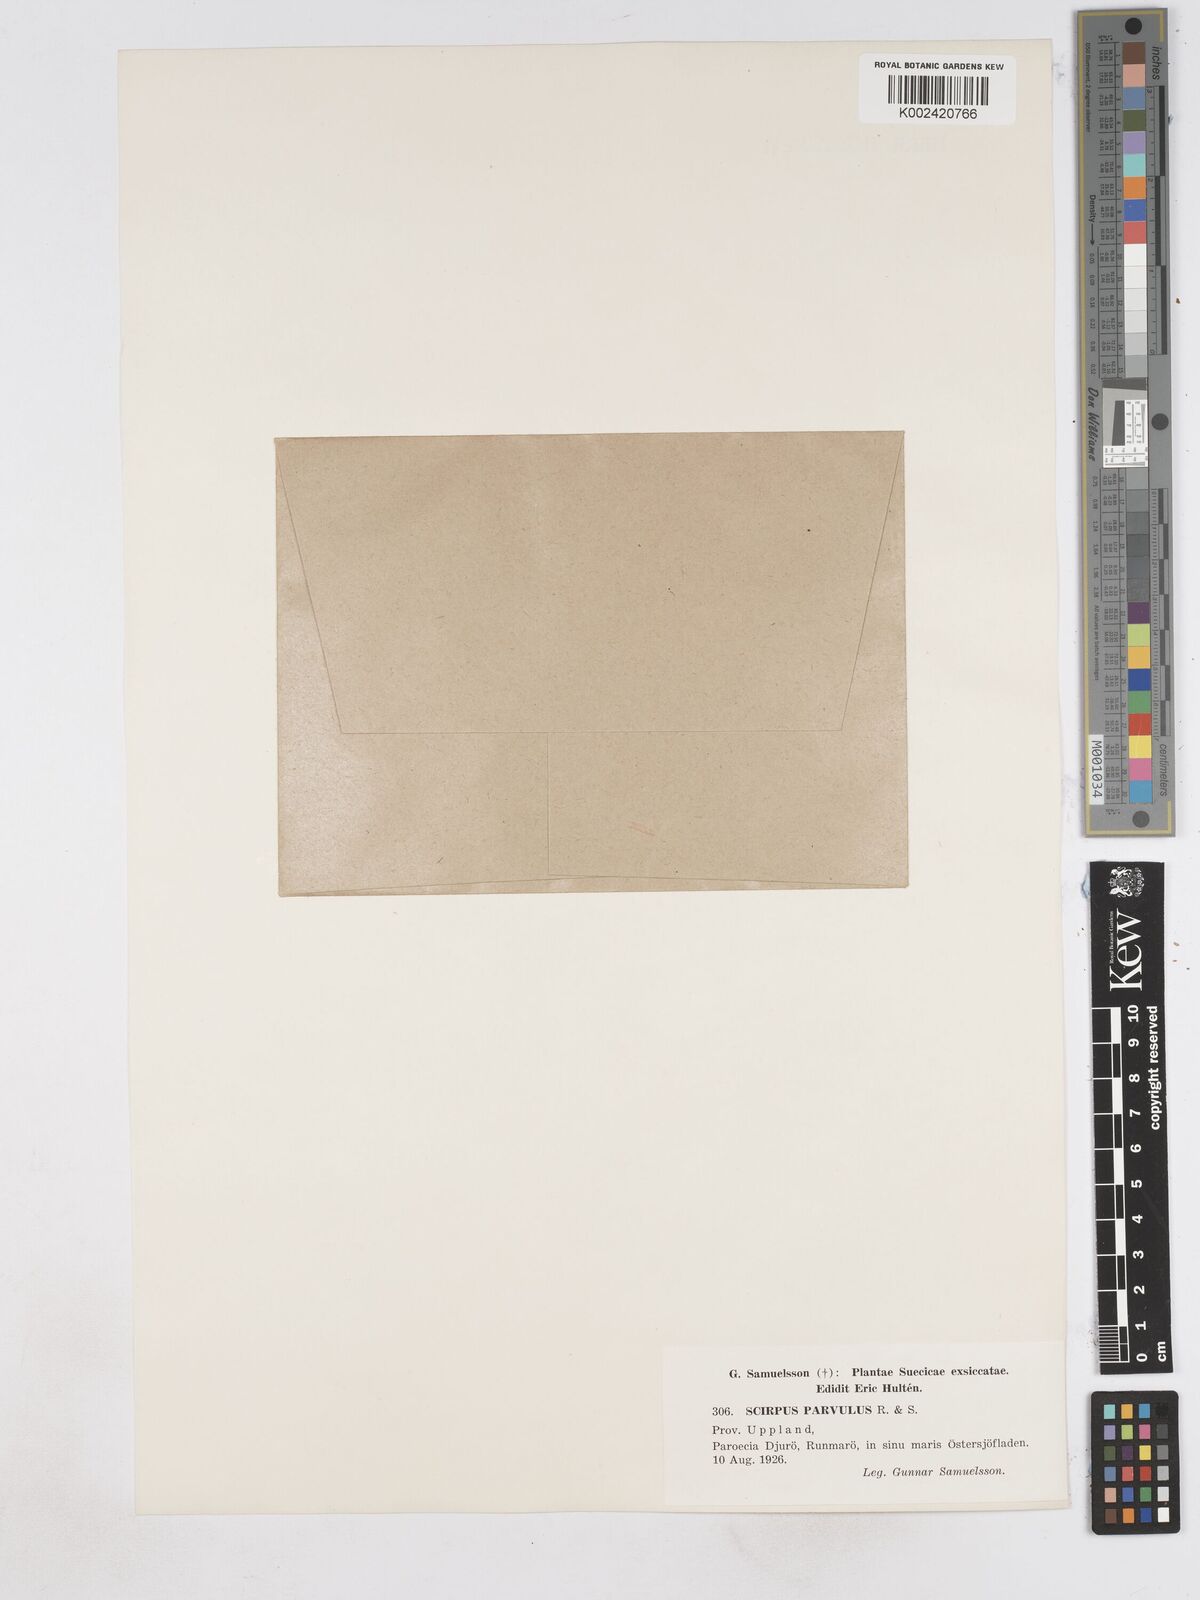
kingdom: Plantae
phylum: Tracheophyta
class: Liliopsida
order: Poales
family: Cyperaceae
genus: Eleocharis
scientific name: Eleocharis parvula
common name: Dwarf spike-rush
